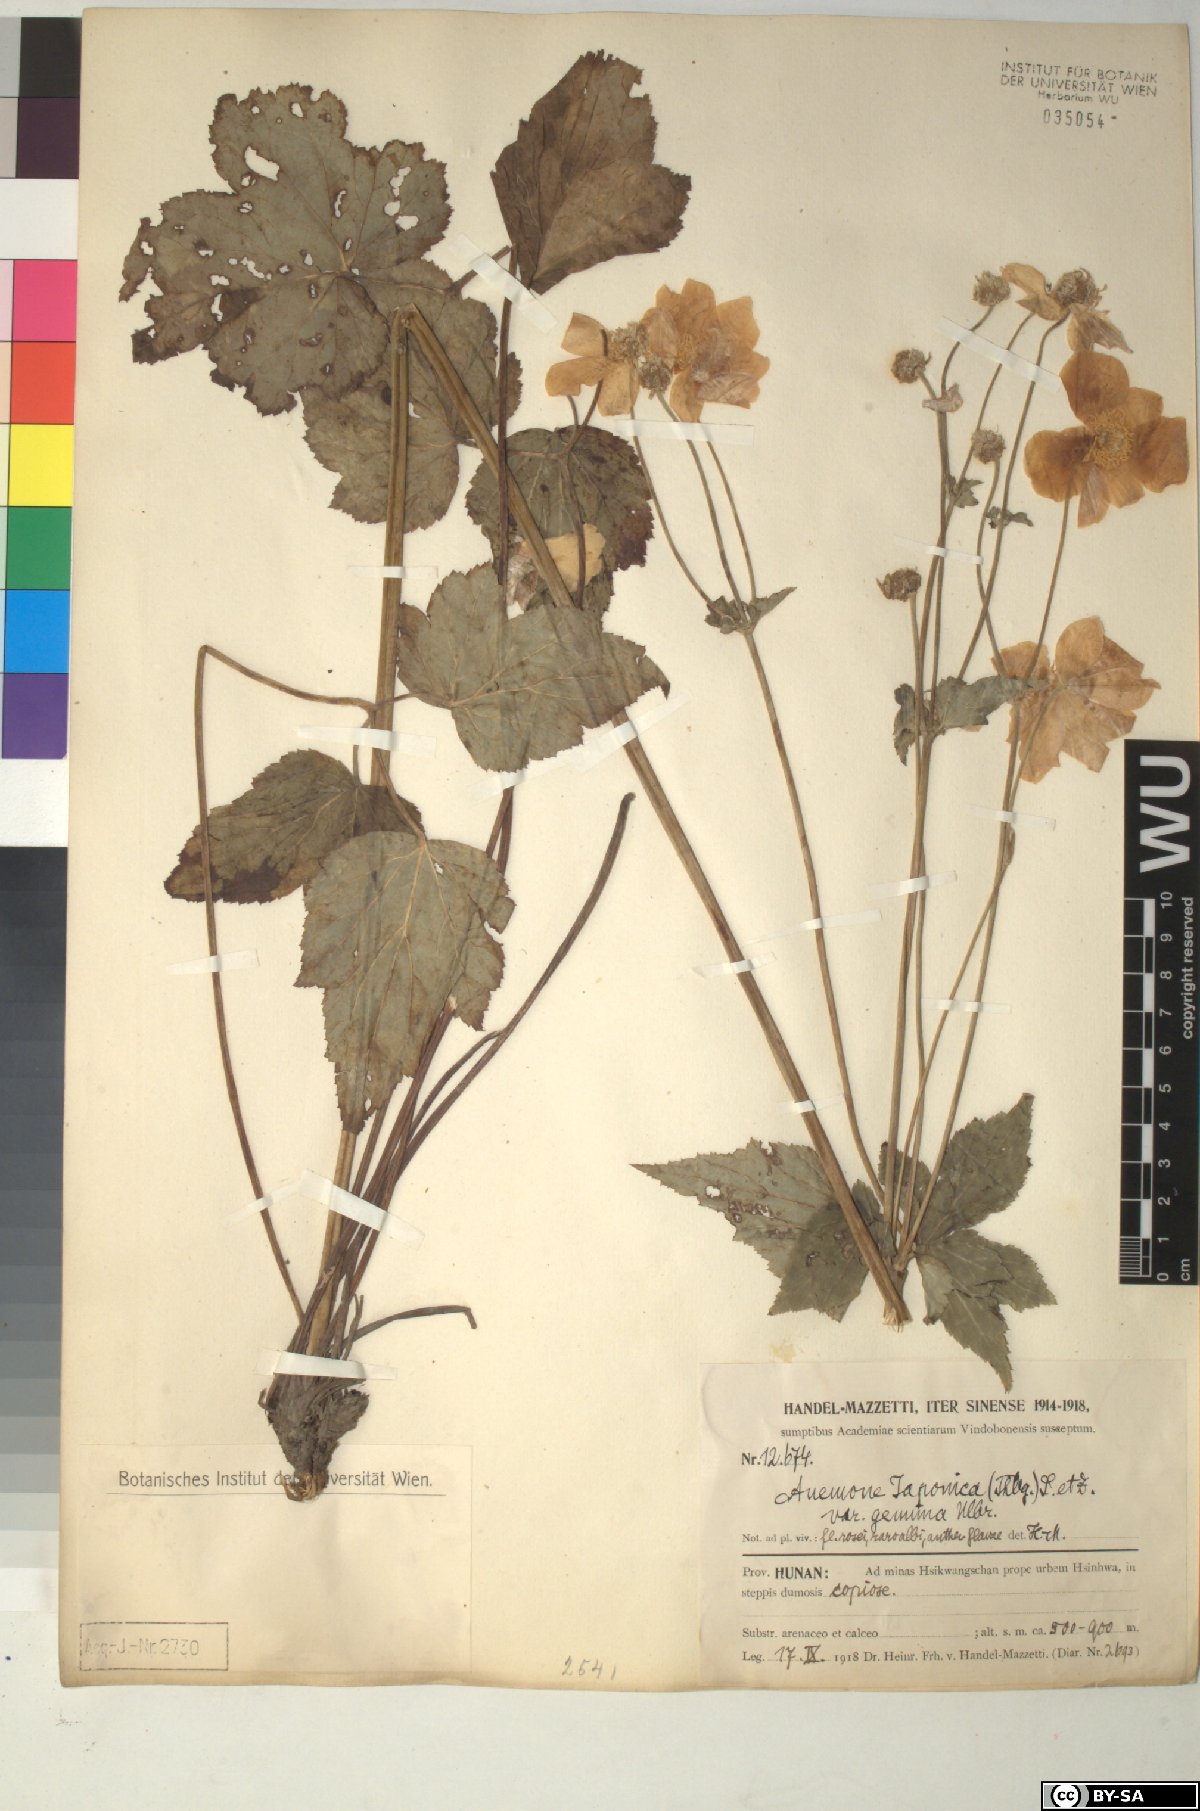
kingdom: Plantae
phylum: Tracheophyta
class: Magnoliopsida
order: Ranunculales
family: Ranunculaceae
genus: Eriocapitella
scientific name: Eriocapitella japonica
